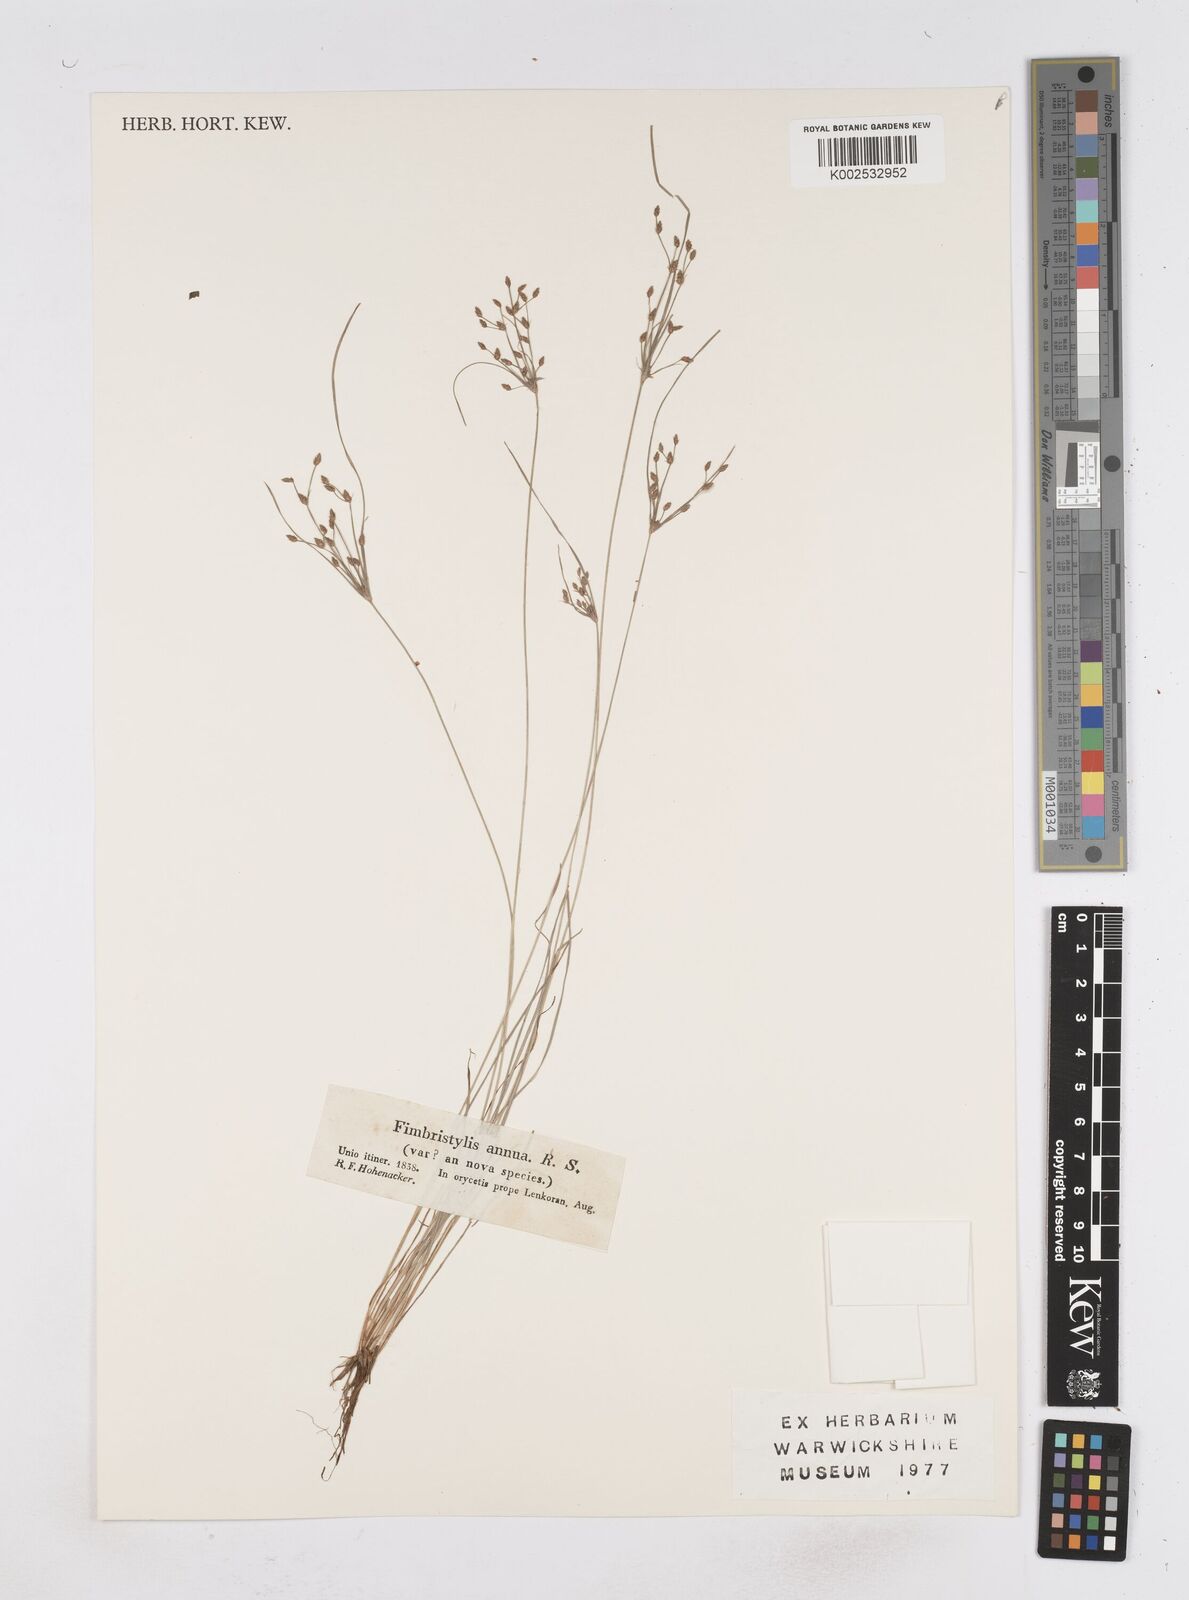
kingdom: Plantae
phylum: Tracheophyta
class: Liliopsida
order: Poales
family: Cyperaceae
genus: Fimbristylis
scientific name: Fimbristylis bisumbellata
